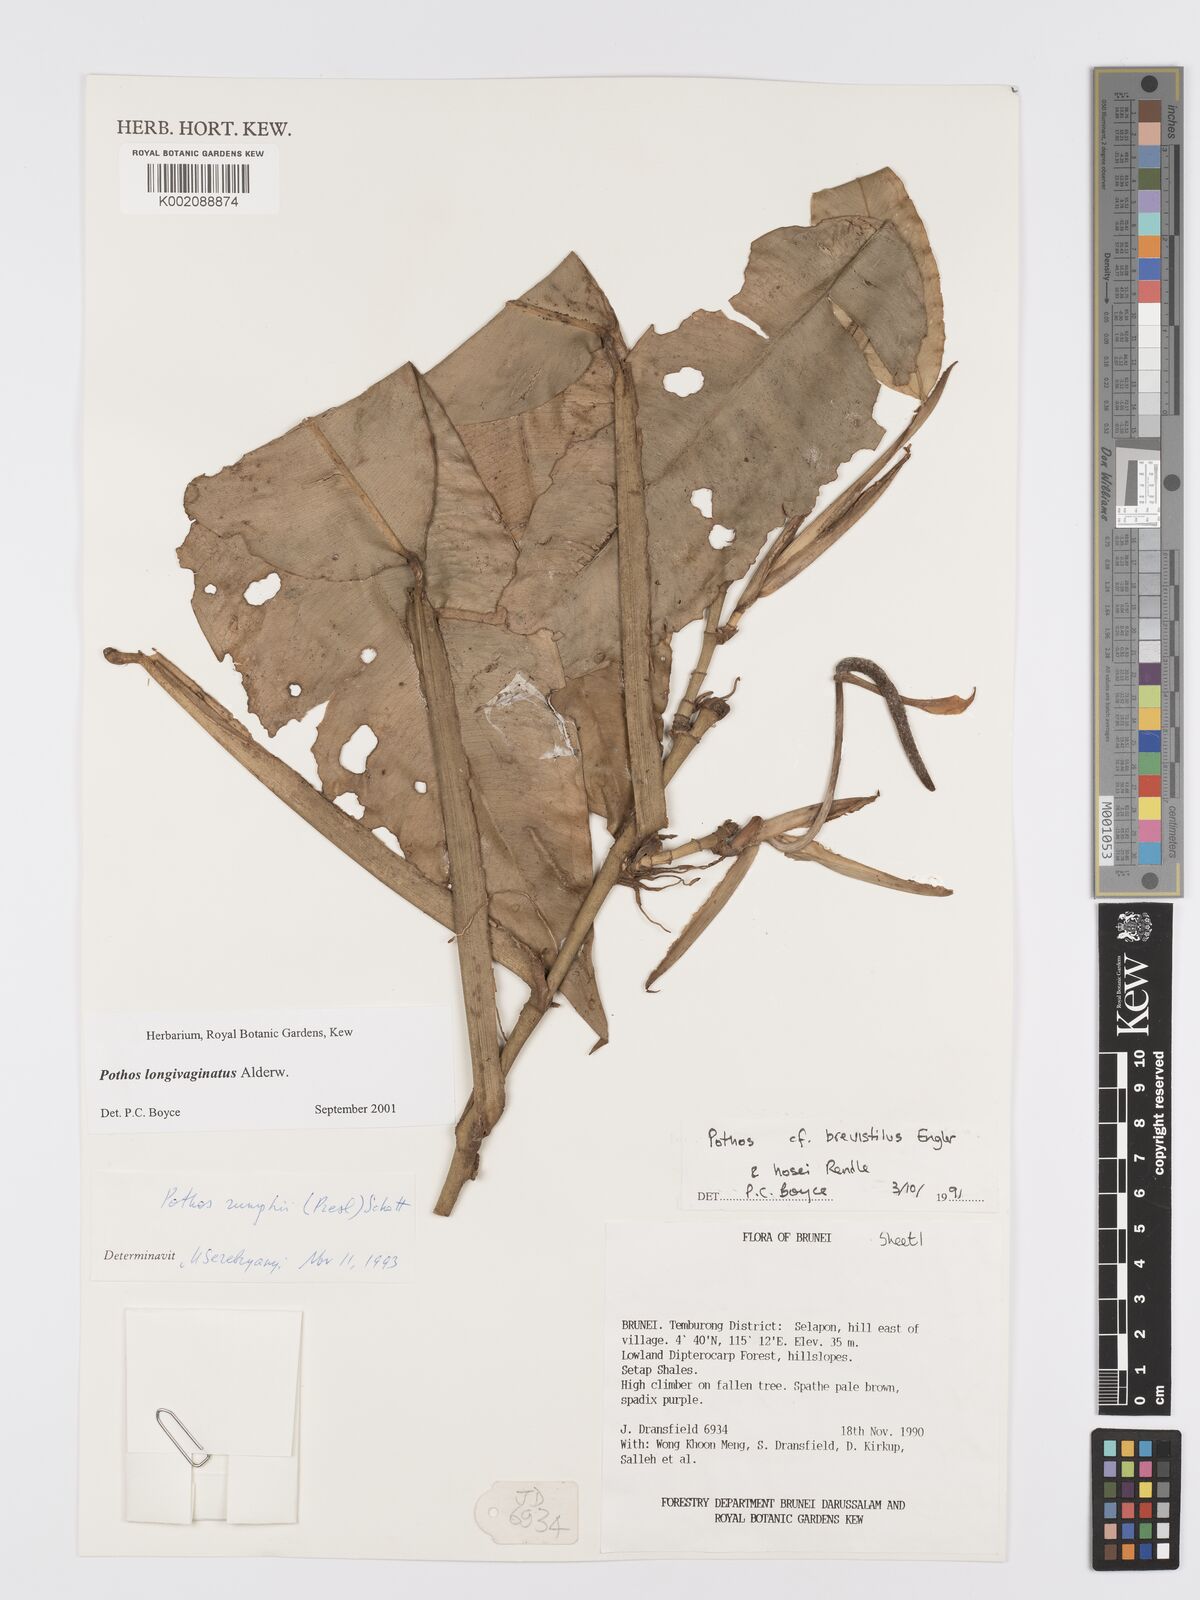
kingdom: Plantae
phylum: Tracheophyta
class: Liliopsida
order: Alismatales
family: Araceae
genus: Pothos
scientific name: Pothos longivaginatus
